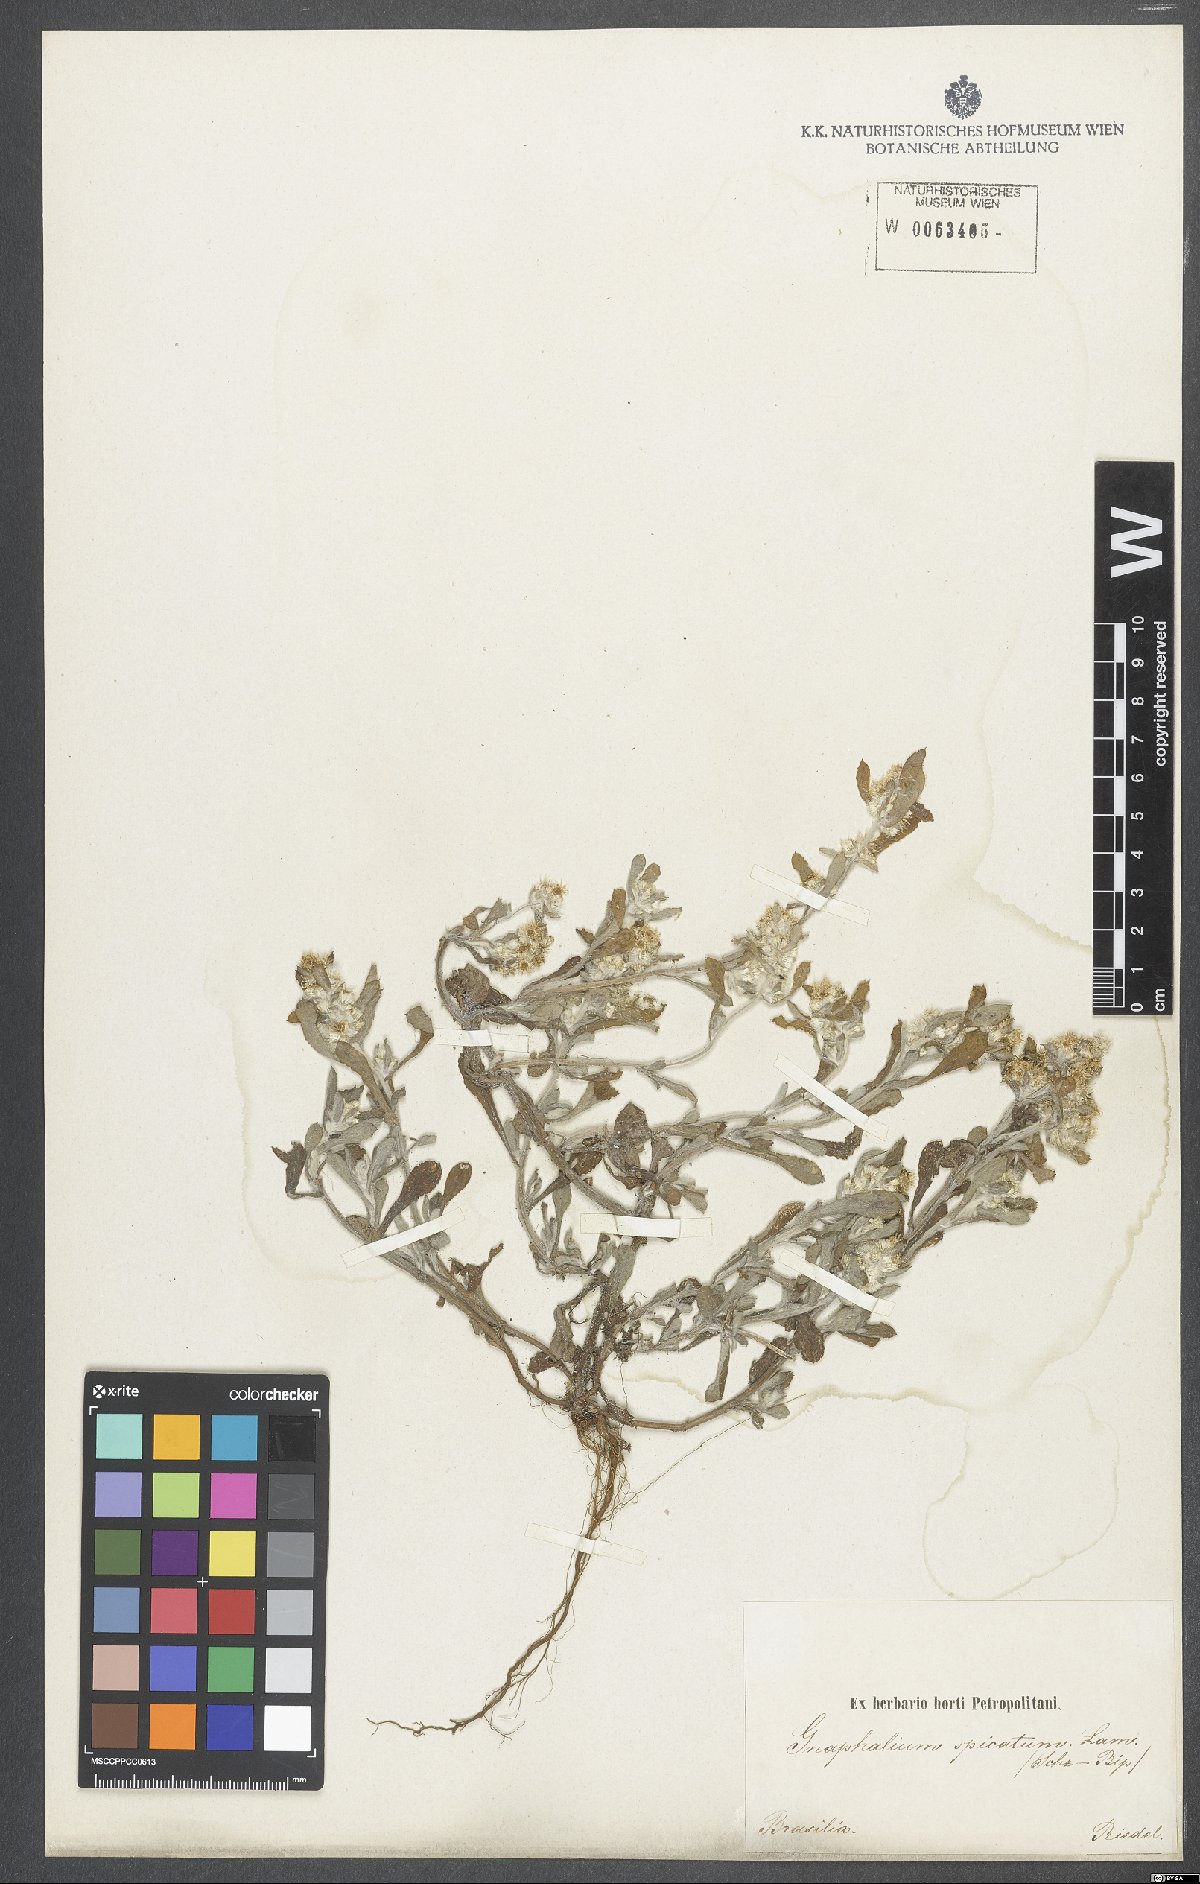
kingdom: Plantae
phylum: Tracheophyta
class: Magnoliopsida
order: Asterales
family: Asteraceae
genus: Gamochaeta
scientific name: Gamochaeta americana
